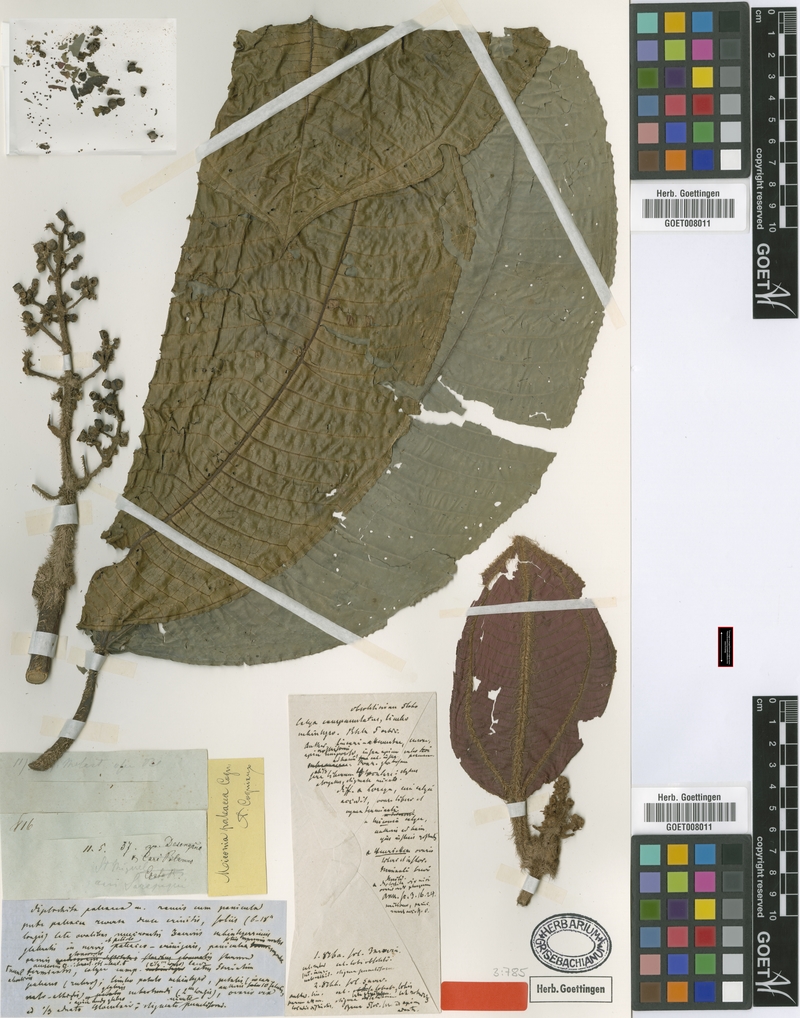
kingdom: Plantae
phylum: Tracheophyta
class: Magnoliopsida
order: Myrtales
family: Melastomataceae
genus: Miconia
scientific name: Miconia paleacea
